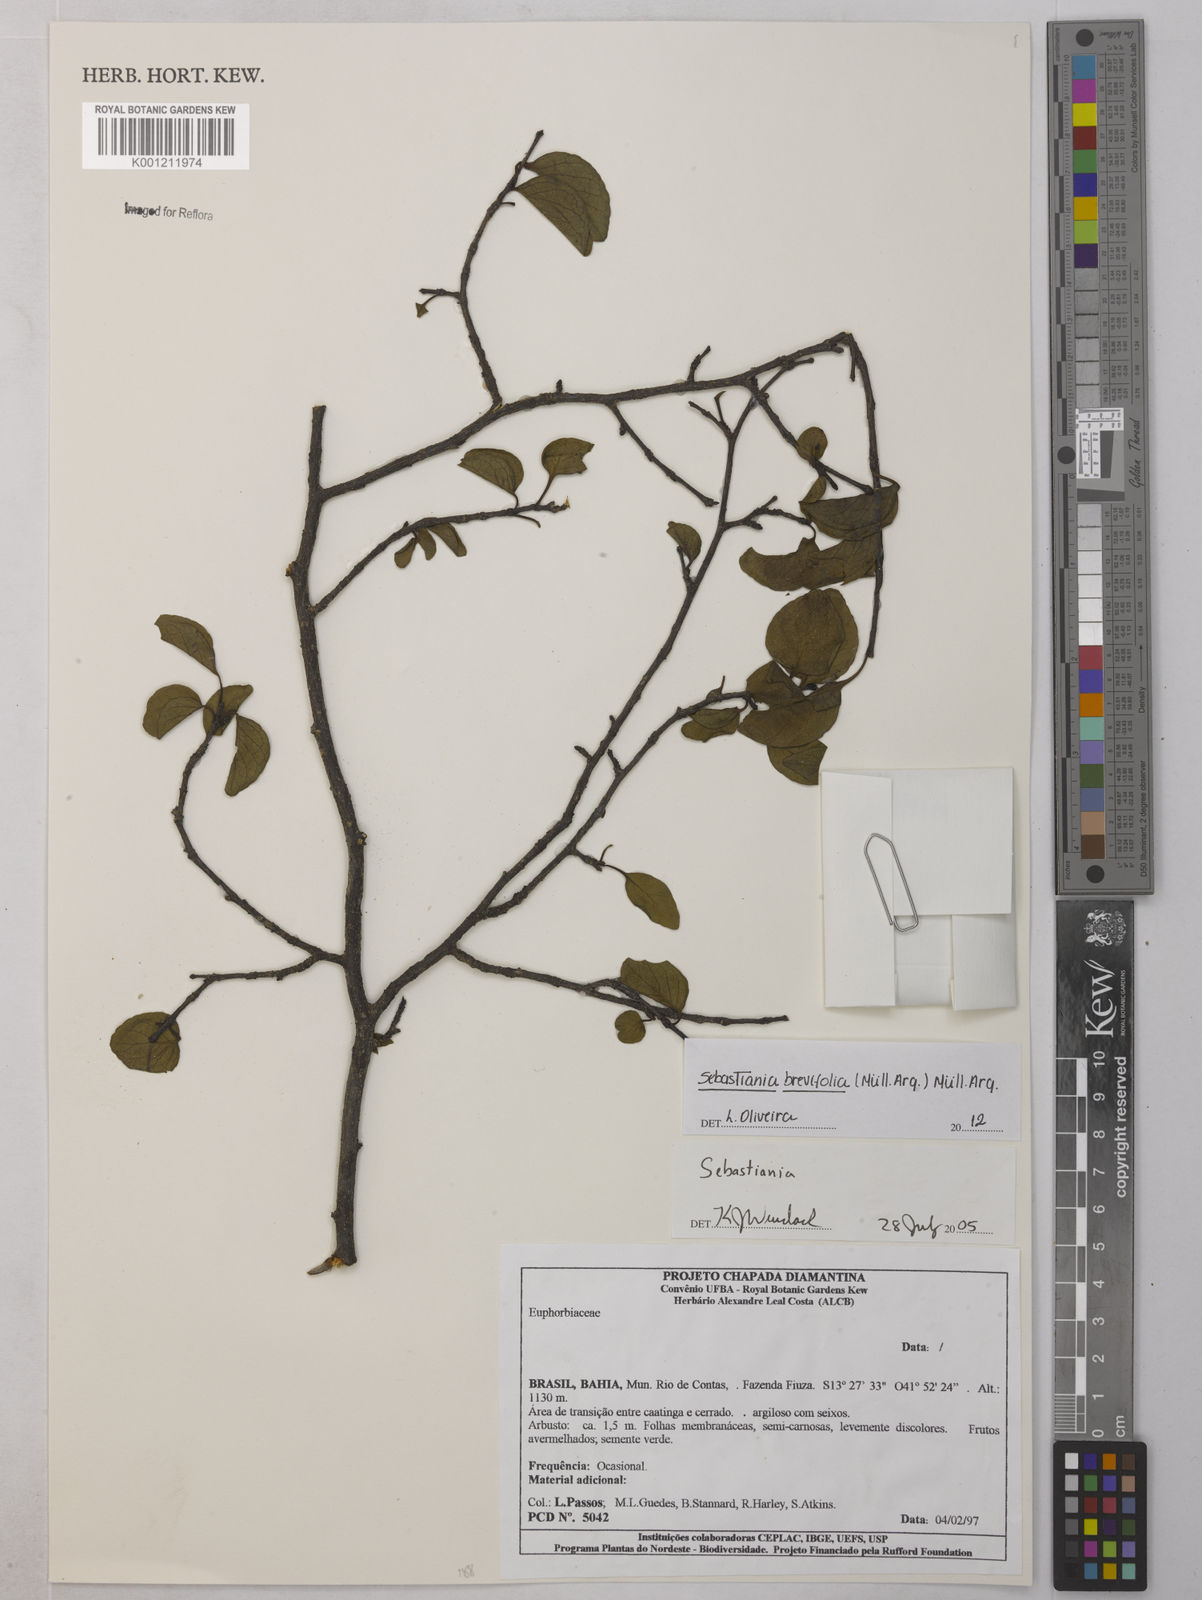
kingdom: Plantae
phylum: Tracheophyta
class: Magnoliopsida
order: Malpighiales
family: Euphorbiaceae
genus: Sebastiania
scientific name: Sebastiania
